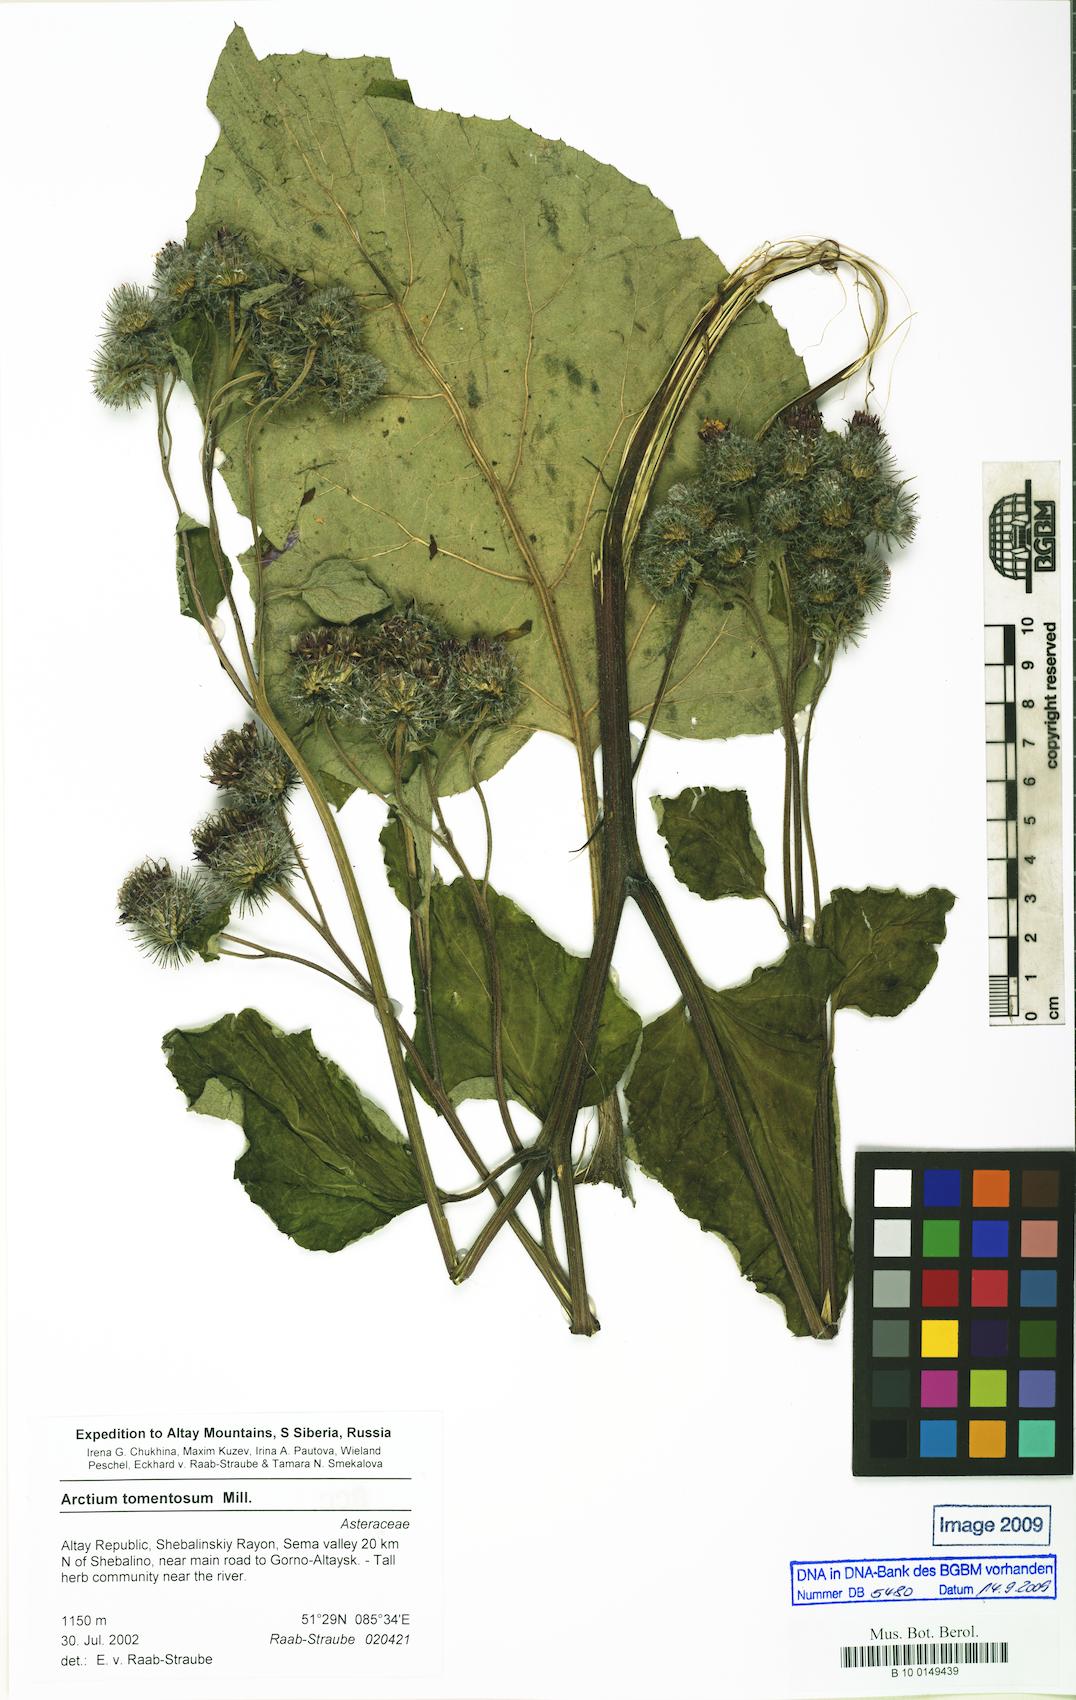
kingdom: Plantae
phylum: Tracheophyta
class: Magnoliopsida
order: Asterales
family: Asteraceae
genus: Arctium
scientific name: Arctium tomentosum
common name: Woolly burdock
